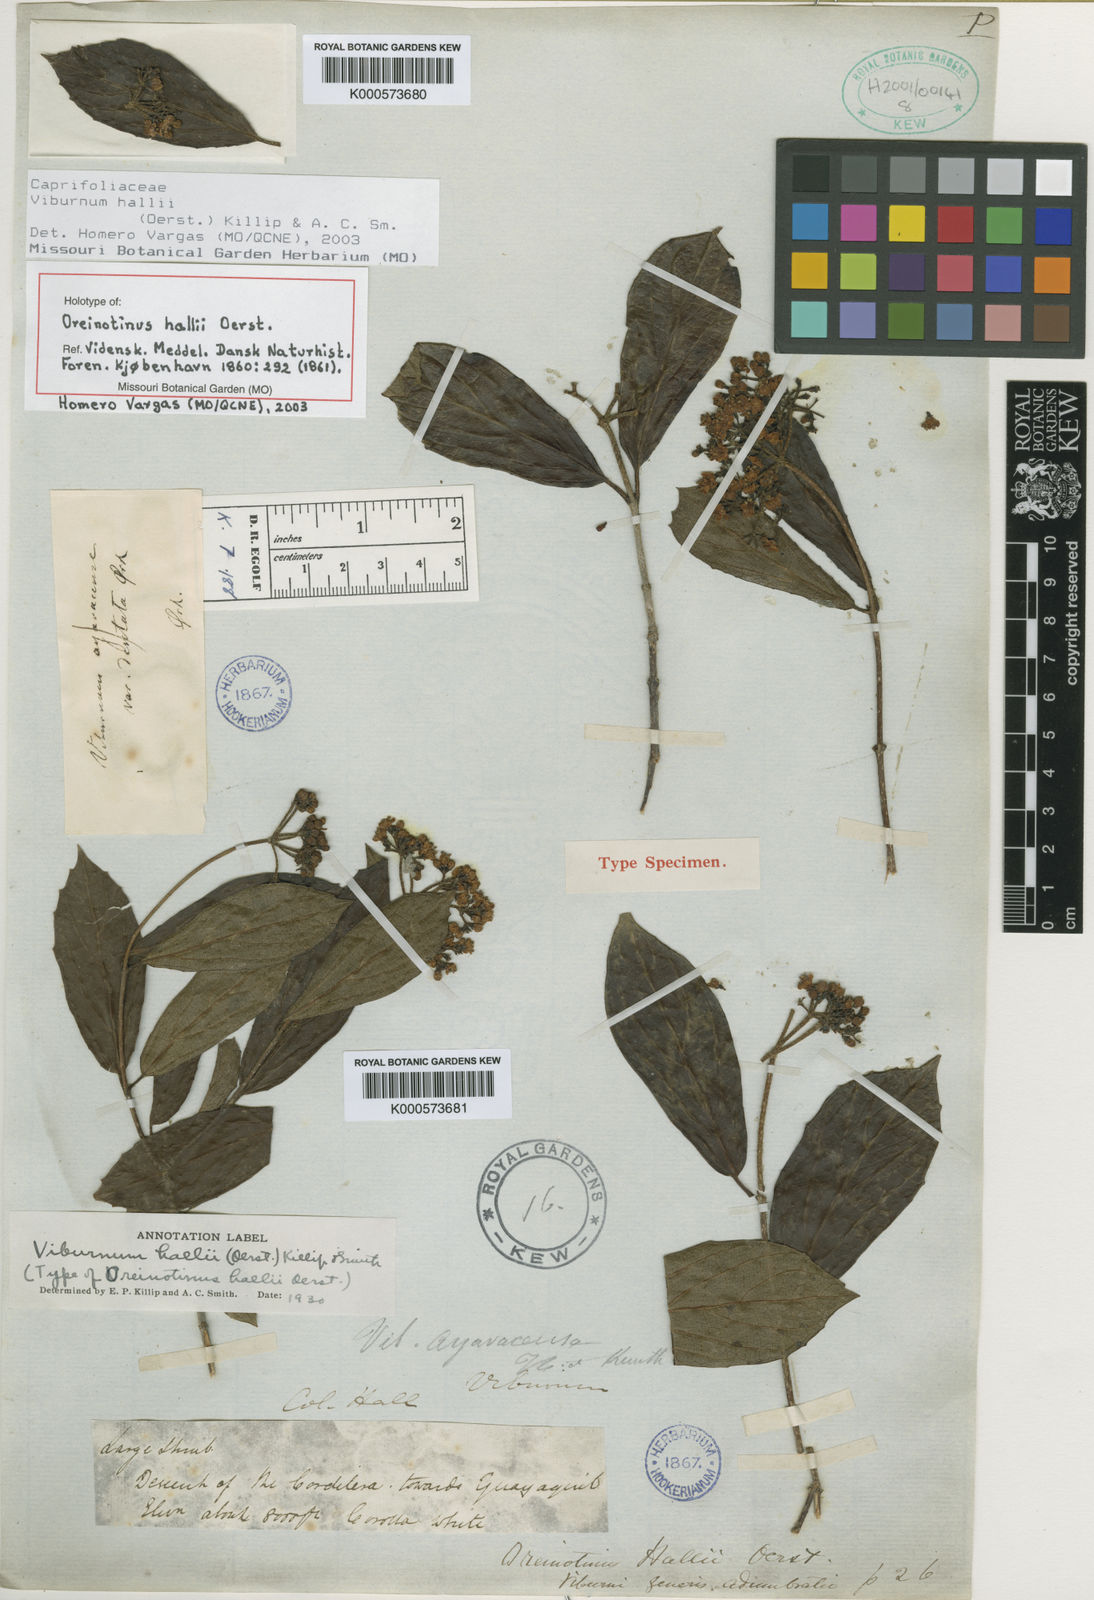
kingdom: Plantae
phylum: Tracheophyta
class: Magnoliopsida
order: Dipsacales
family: Viburnaceae
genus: Viburnum
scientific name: Viburnum hallii
